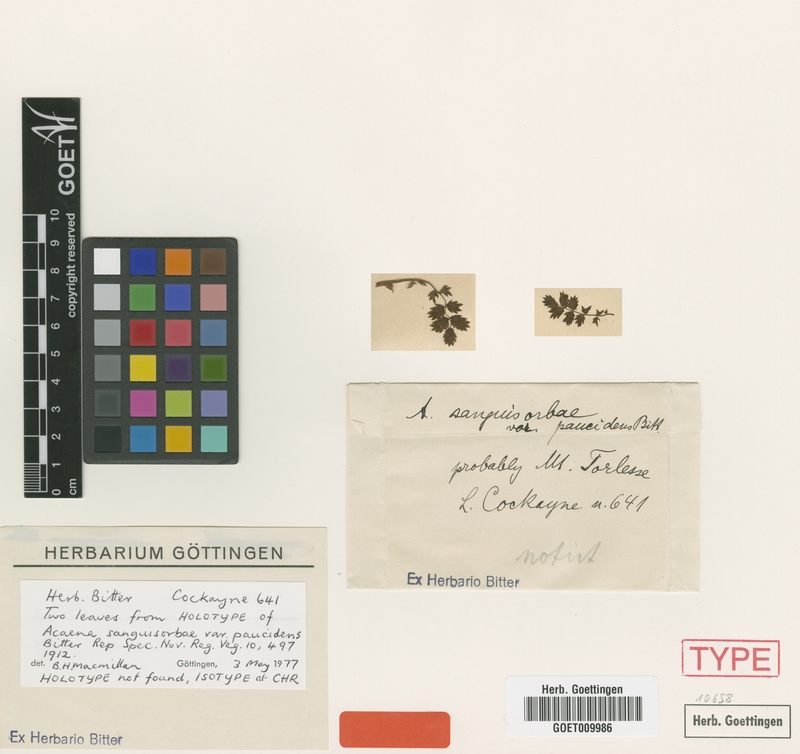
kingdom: Plantae
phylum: Tracheophyta
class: Magnoliopsida
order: Rosales
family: Rosaceae
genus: Acaena
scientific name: Acaena profundeincisa
